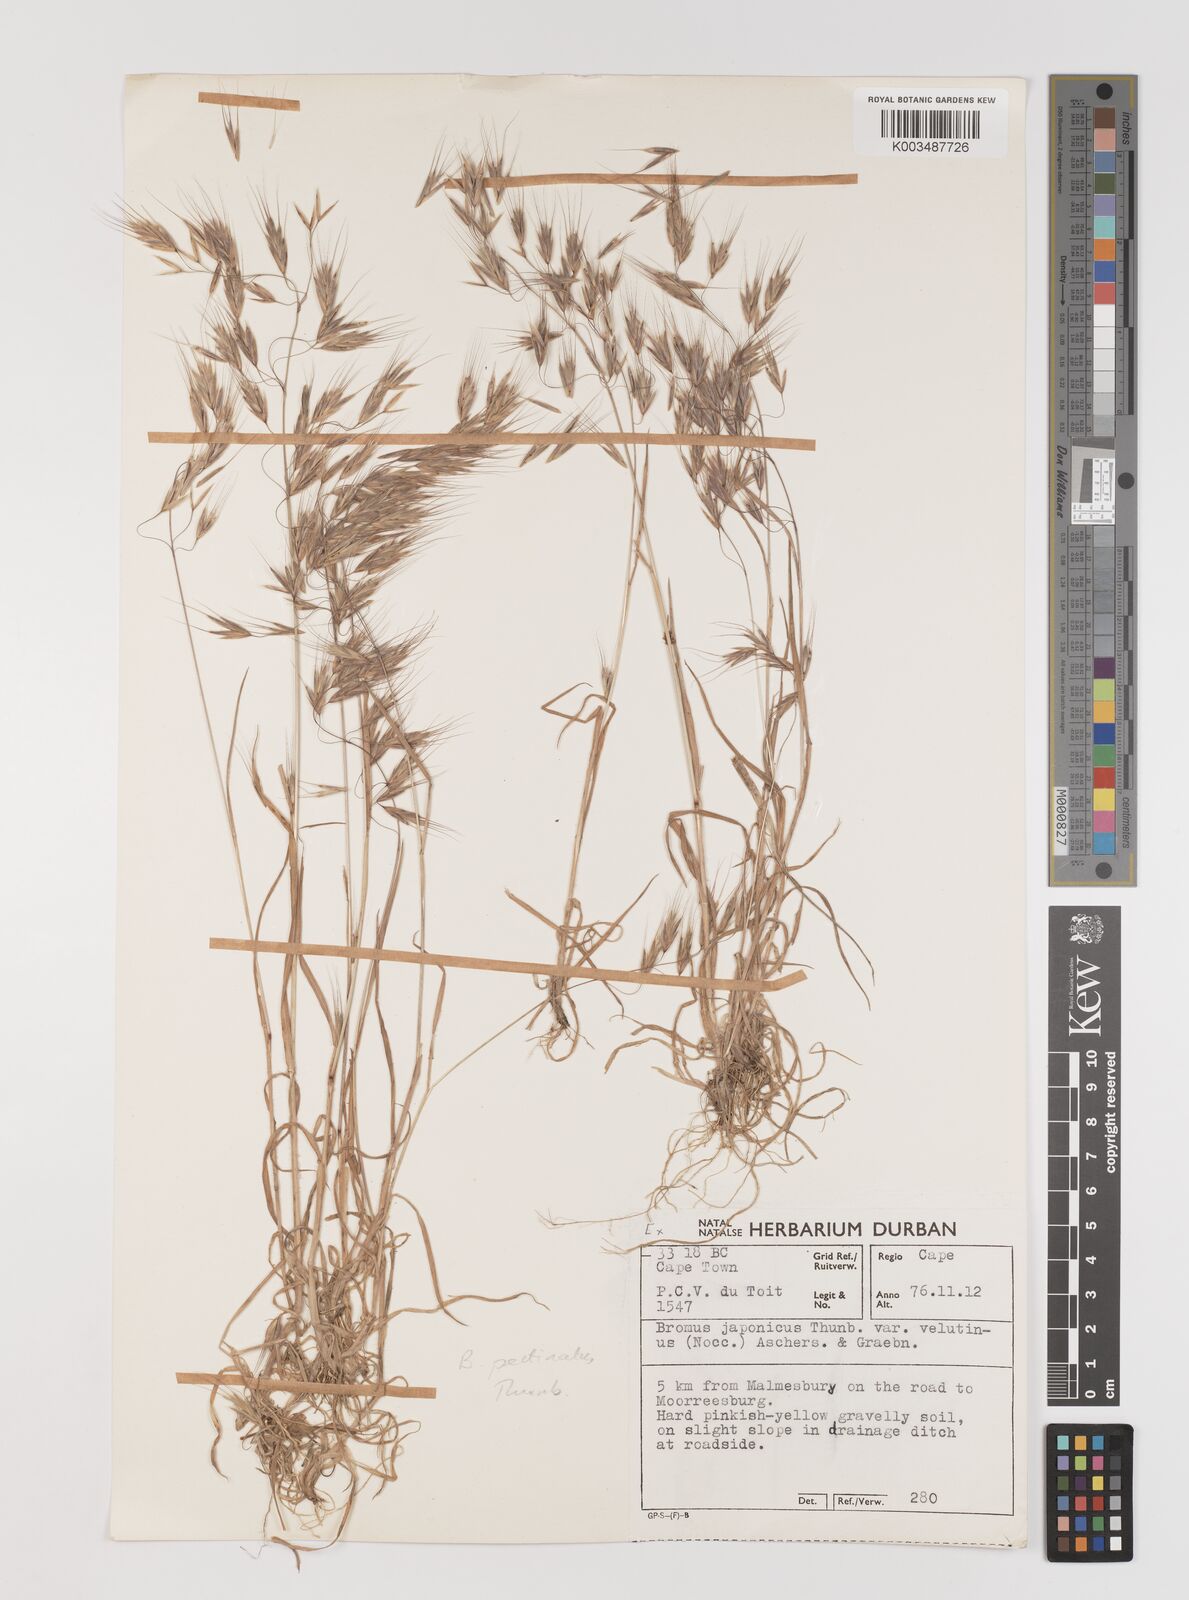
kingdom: Plantae
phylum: Tracheophyta
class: Liliopsida
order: Poales
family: Poaceae
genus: Bromus
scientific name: Bromus pectinatus
